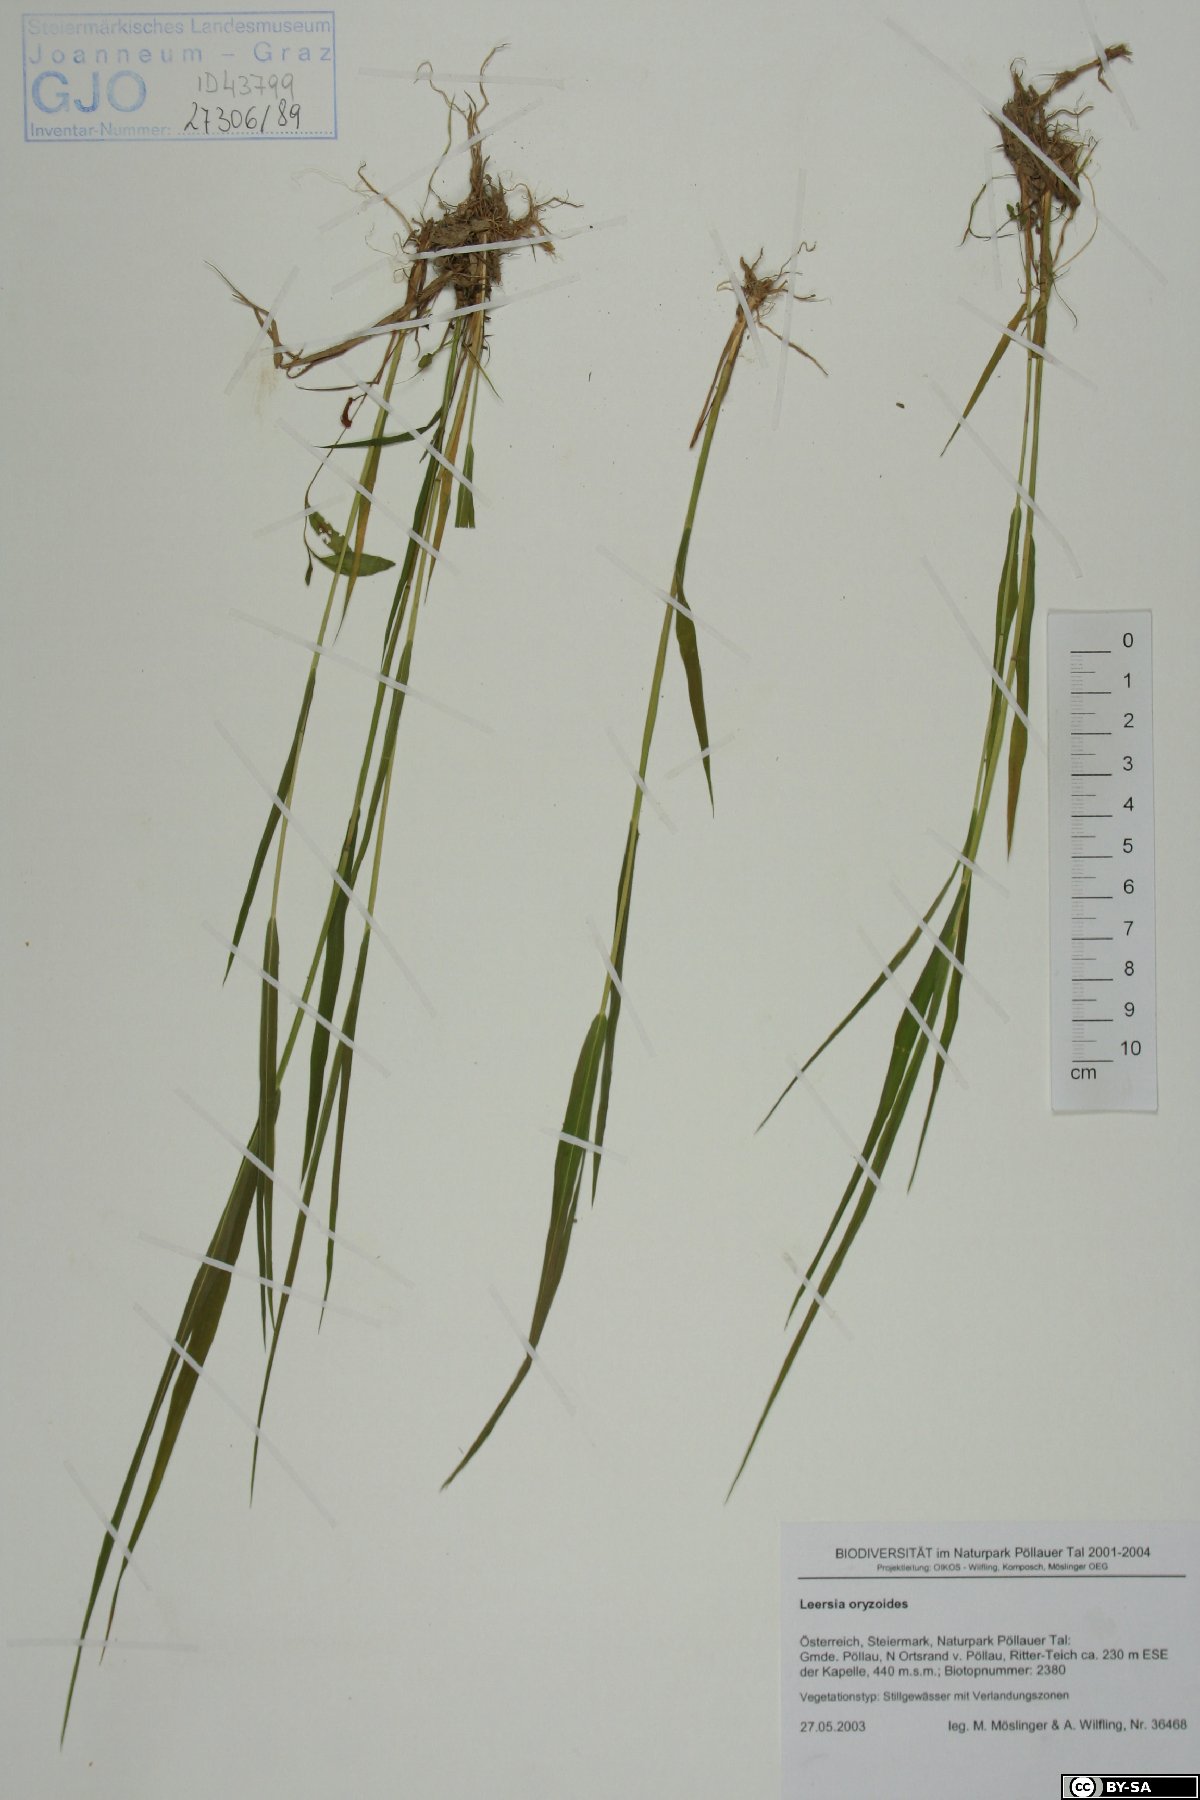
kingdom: Plantae
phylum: Tracheophyta
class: Liliopsida
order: Poales
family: Poaceae
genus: Leersia
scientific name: Leersia oryzoides
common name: Cut-grass
